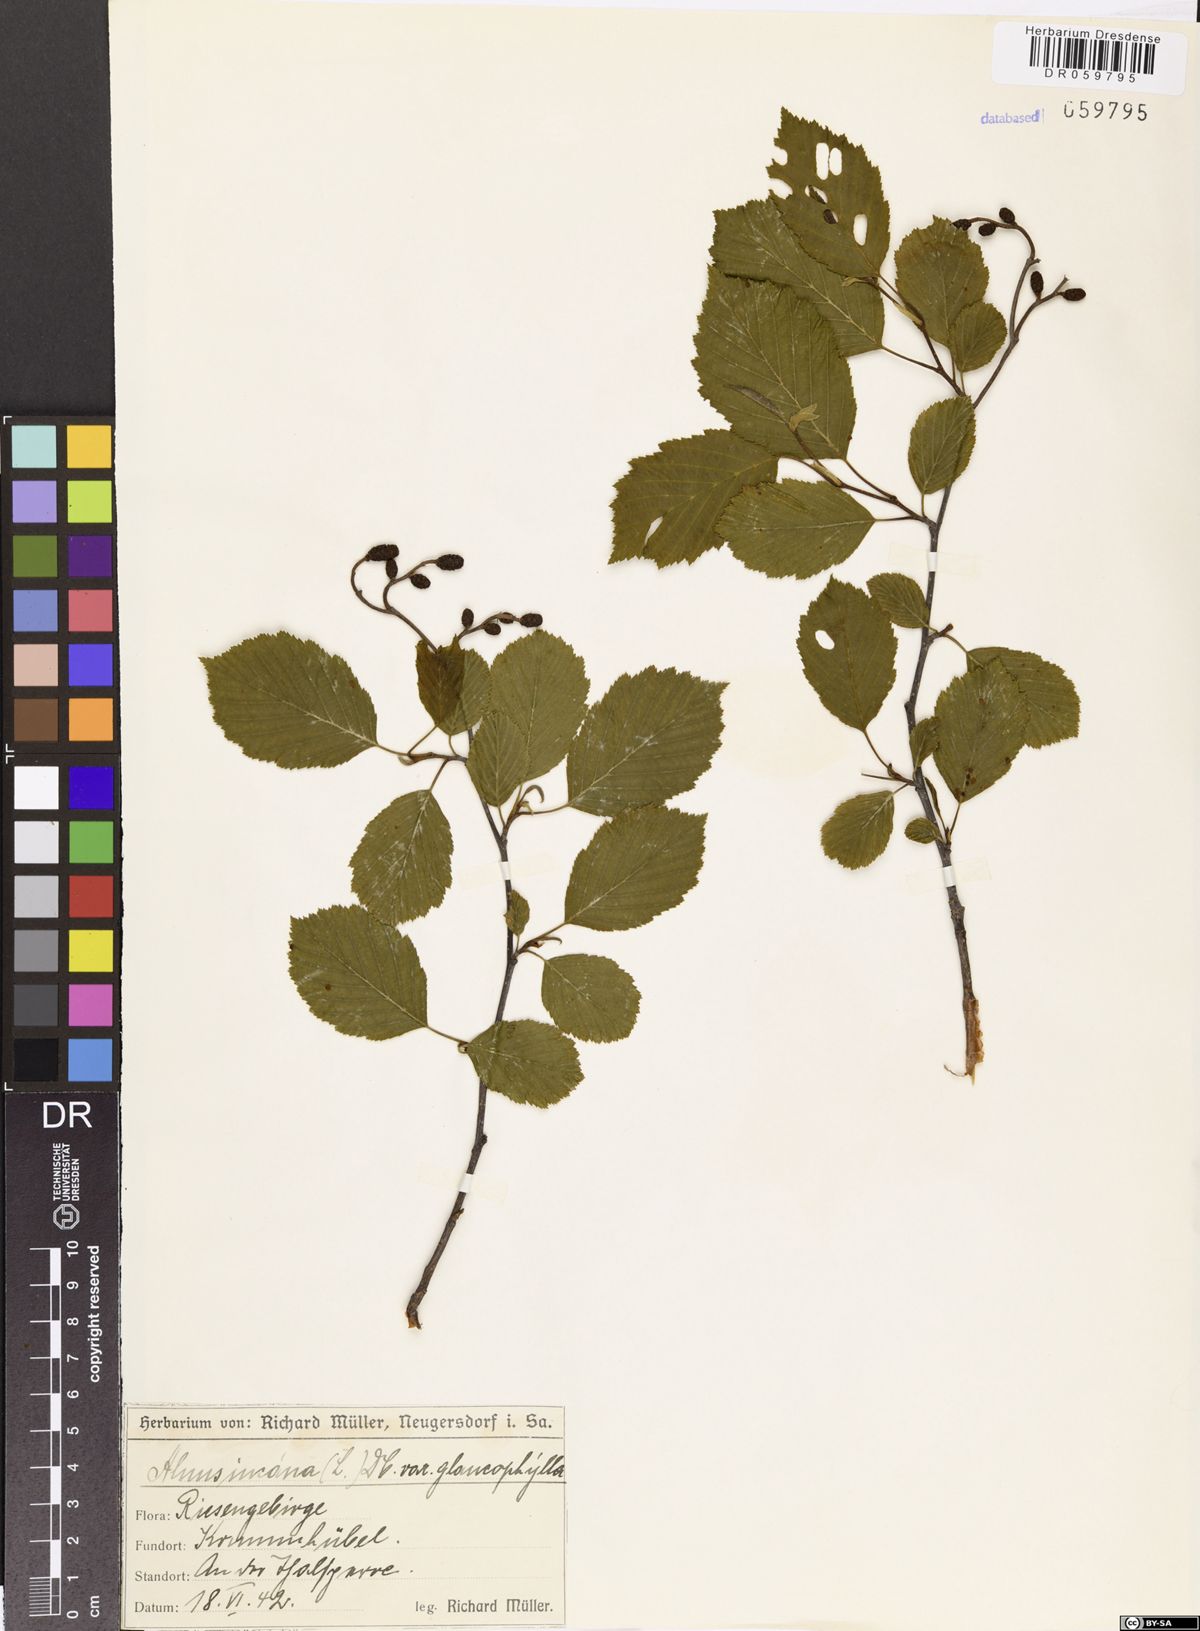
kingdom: Plantae
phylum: Tracheophyta
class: Magnoliopsida
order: Fagales
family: Betulaceae
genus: Alnus
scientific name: Alnus incana
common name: Grey alder
